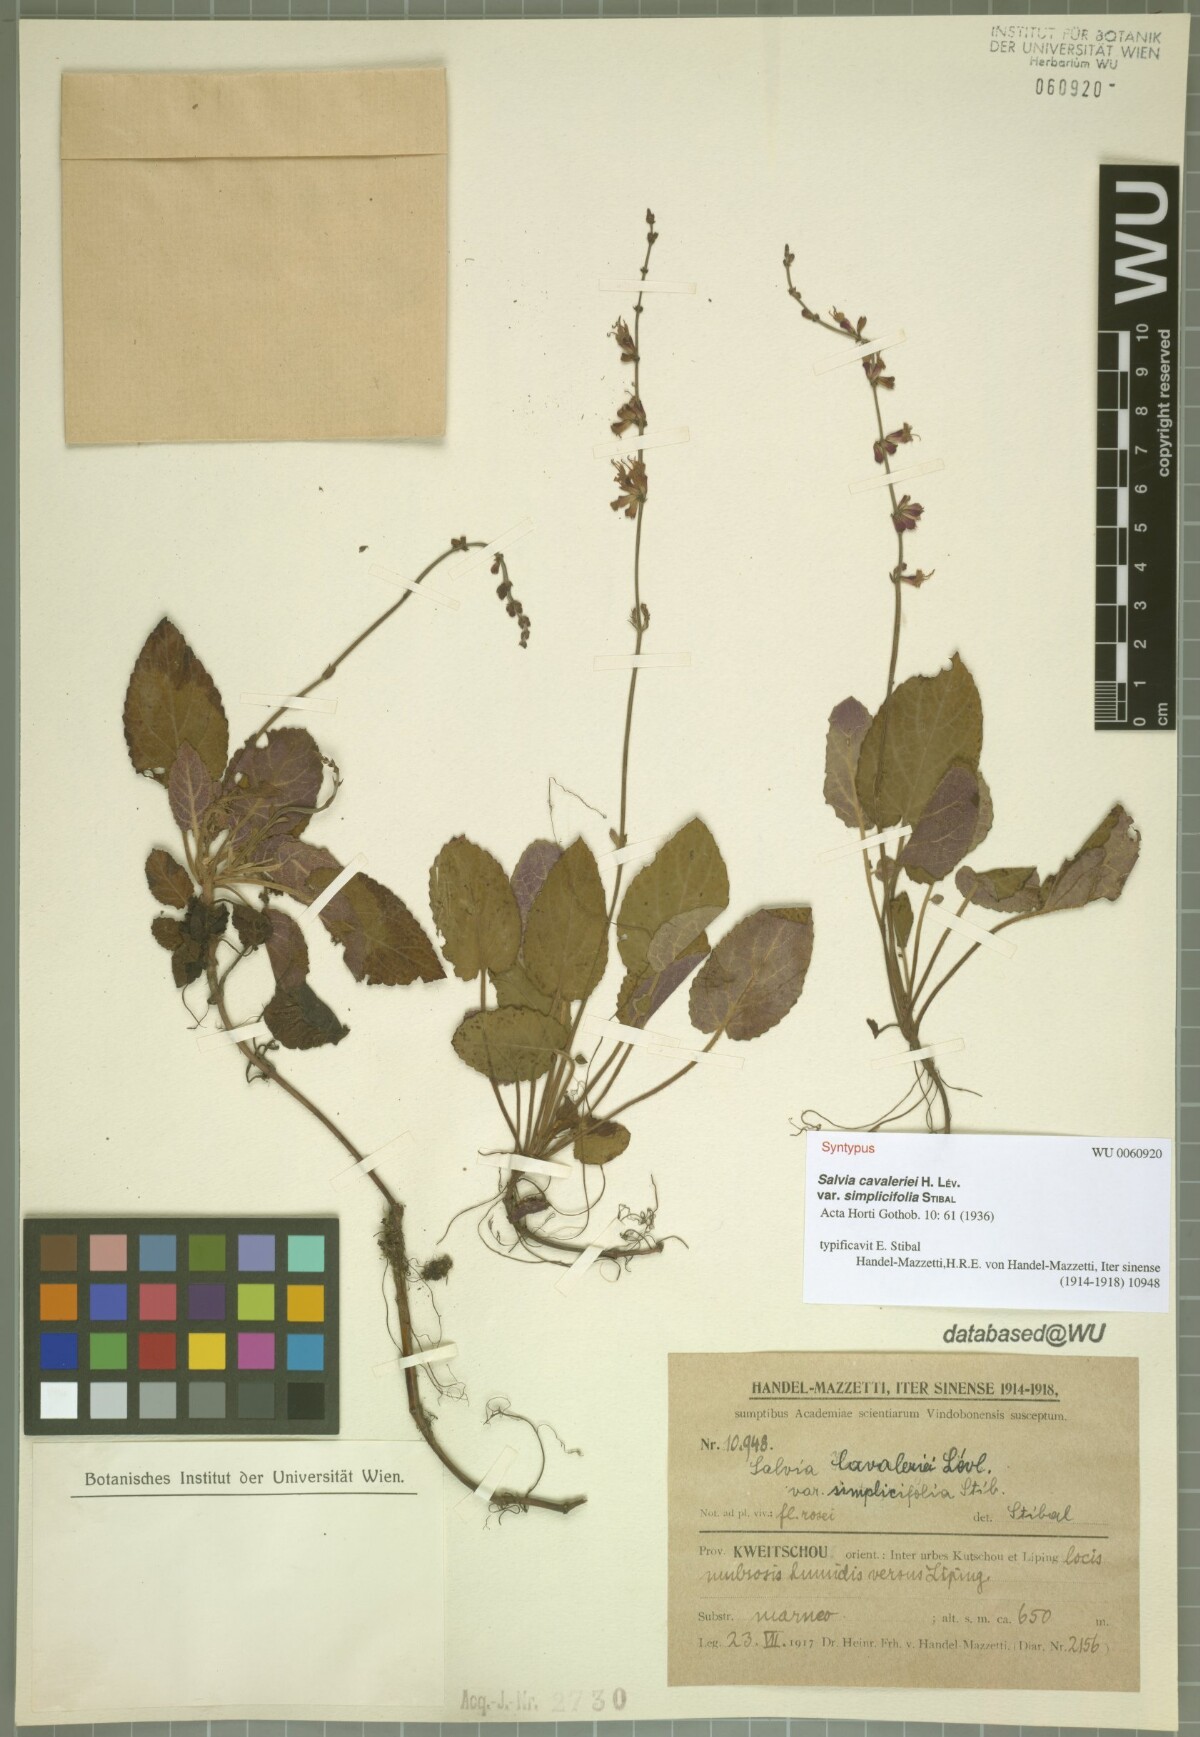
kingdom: Plantae
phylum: Tracheophyta
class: Magnoliopsida
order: Lamiales
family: Lamiaceae
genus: Salvia
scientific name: Salvia cavaleriei
